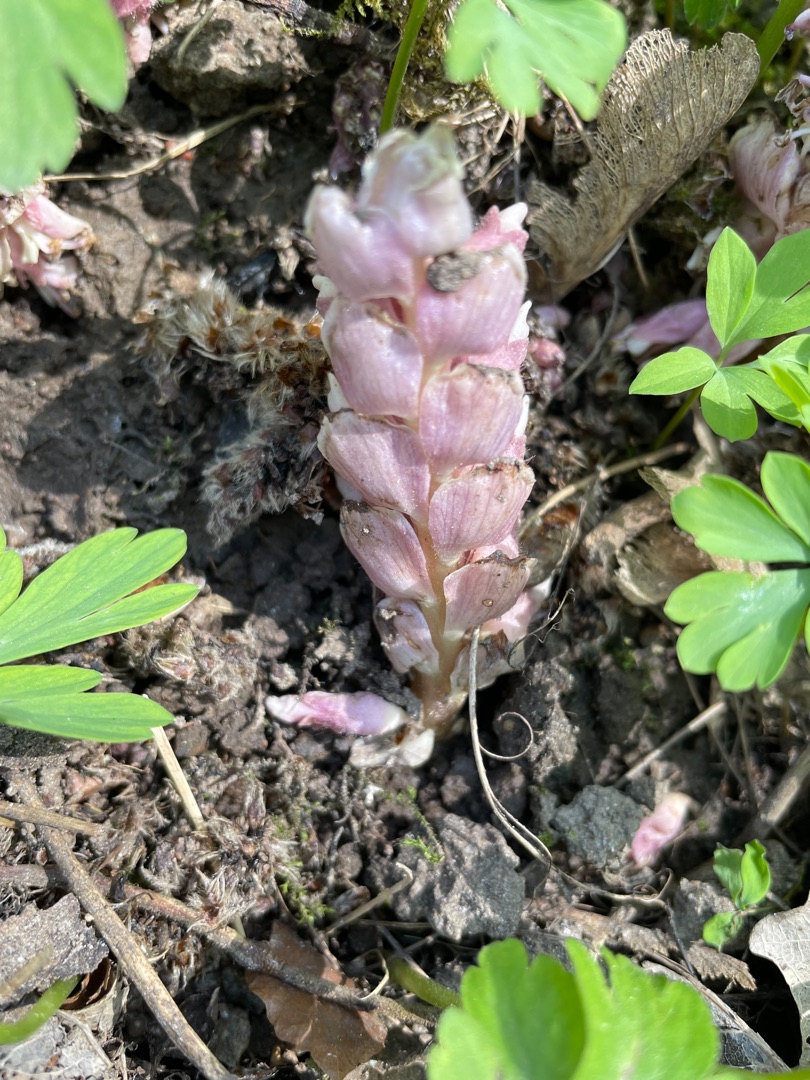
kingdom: Plantae
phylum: Tracheophyta
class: Magnoliopsida
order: Lamiales
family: Orobanchaceae
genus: Lathraea
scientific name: Lathraea squamaria
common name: Skælrod
